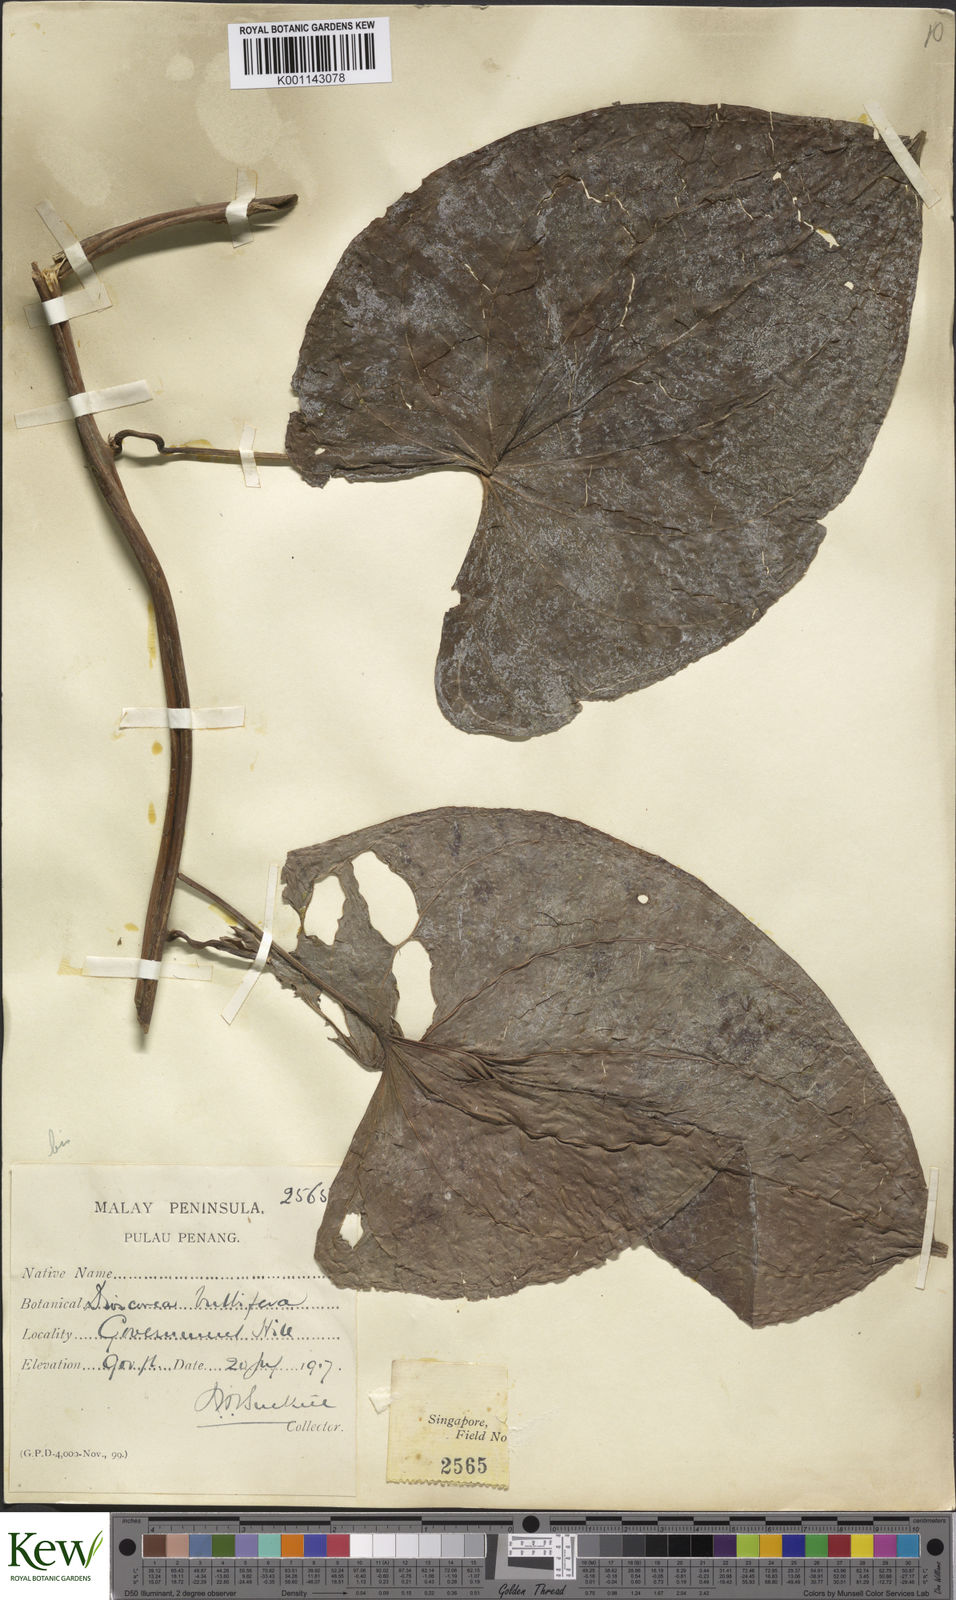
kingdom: Plantae
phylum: Tracheophyta
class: Liliopsida
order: Dioscoreales
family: Dioscoreaceae
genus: Dioscorea
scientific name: Dioscorea bulbifera
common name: Air yam
